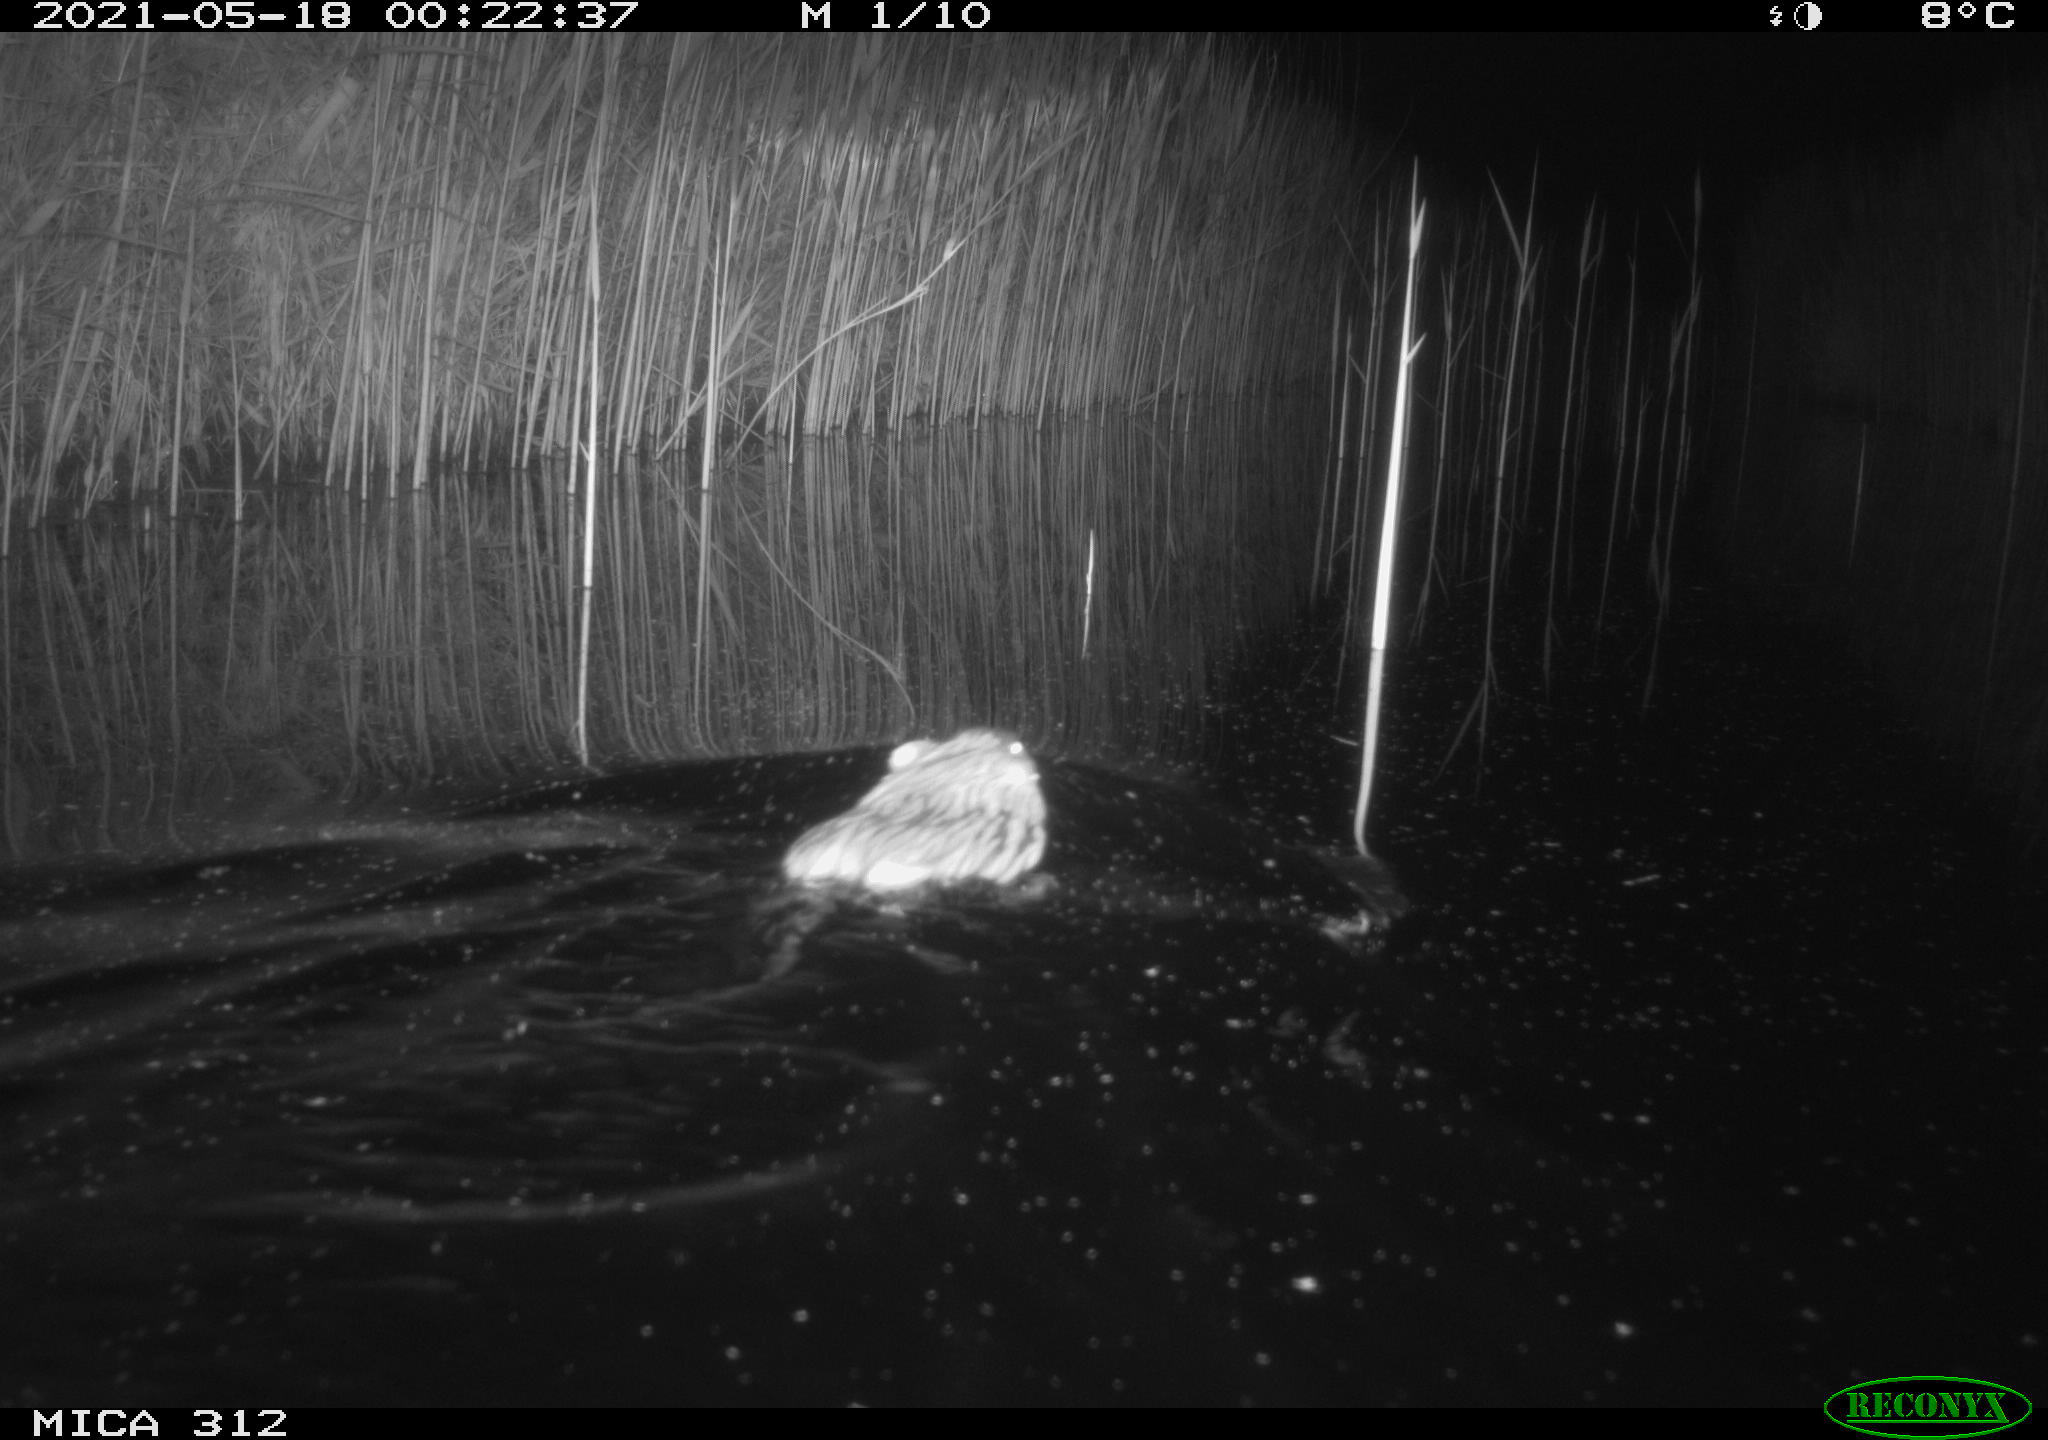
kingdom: Animalia
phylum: Chordata
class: Mammalia
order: Rodentia
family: Cricetidae
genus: Ondatra
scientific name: Ondatra zibethicus
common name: Muskrat
